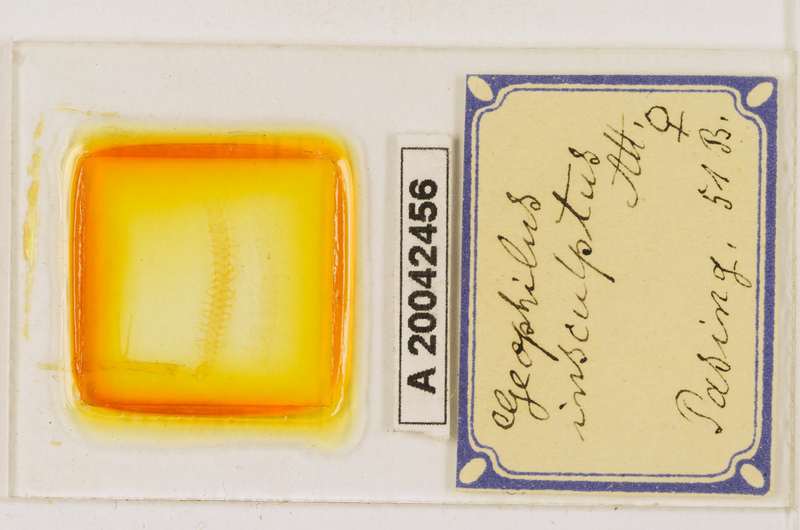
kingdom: Animalia
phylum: Arthropoda
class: Chilopoda
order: Geophilomorpha
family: Geophilidae
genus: Geophilus
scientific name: Geophilus insculptus
